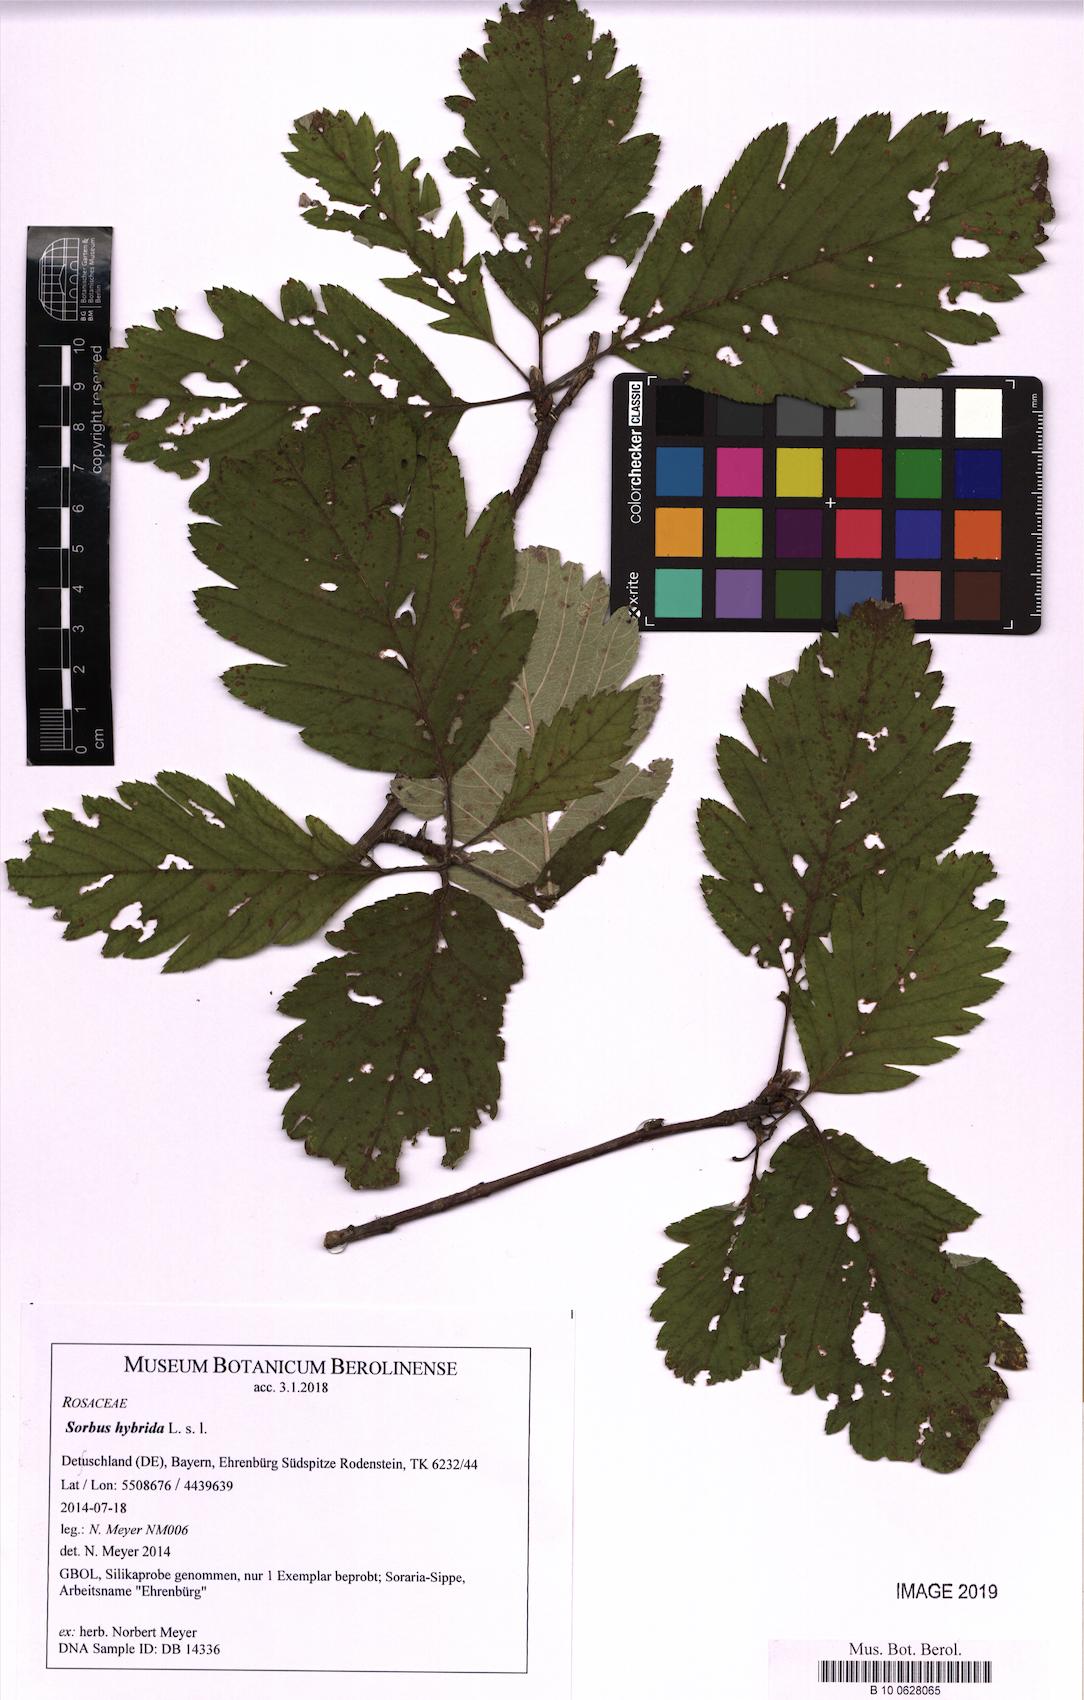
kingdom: Plantae
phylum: Tracheophyta
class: Magnoliopsida
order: Rosales
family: Rosaceae
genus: Hedlundia
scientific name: Hedlundia hybrida
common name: Swedish service-tree
